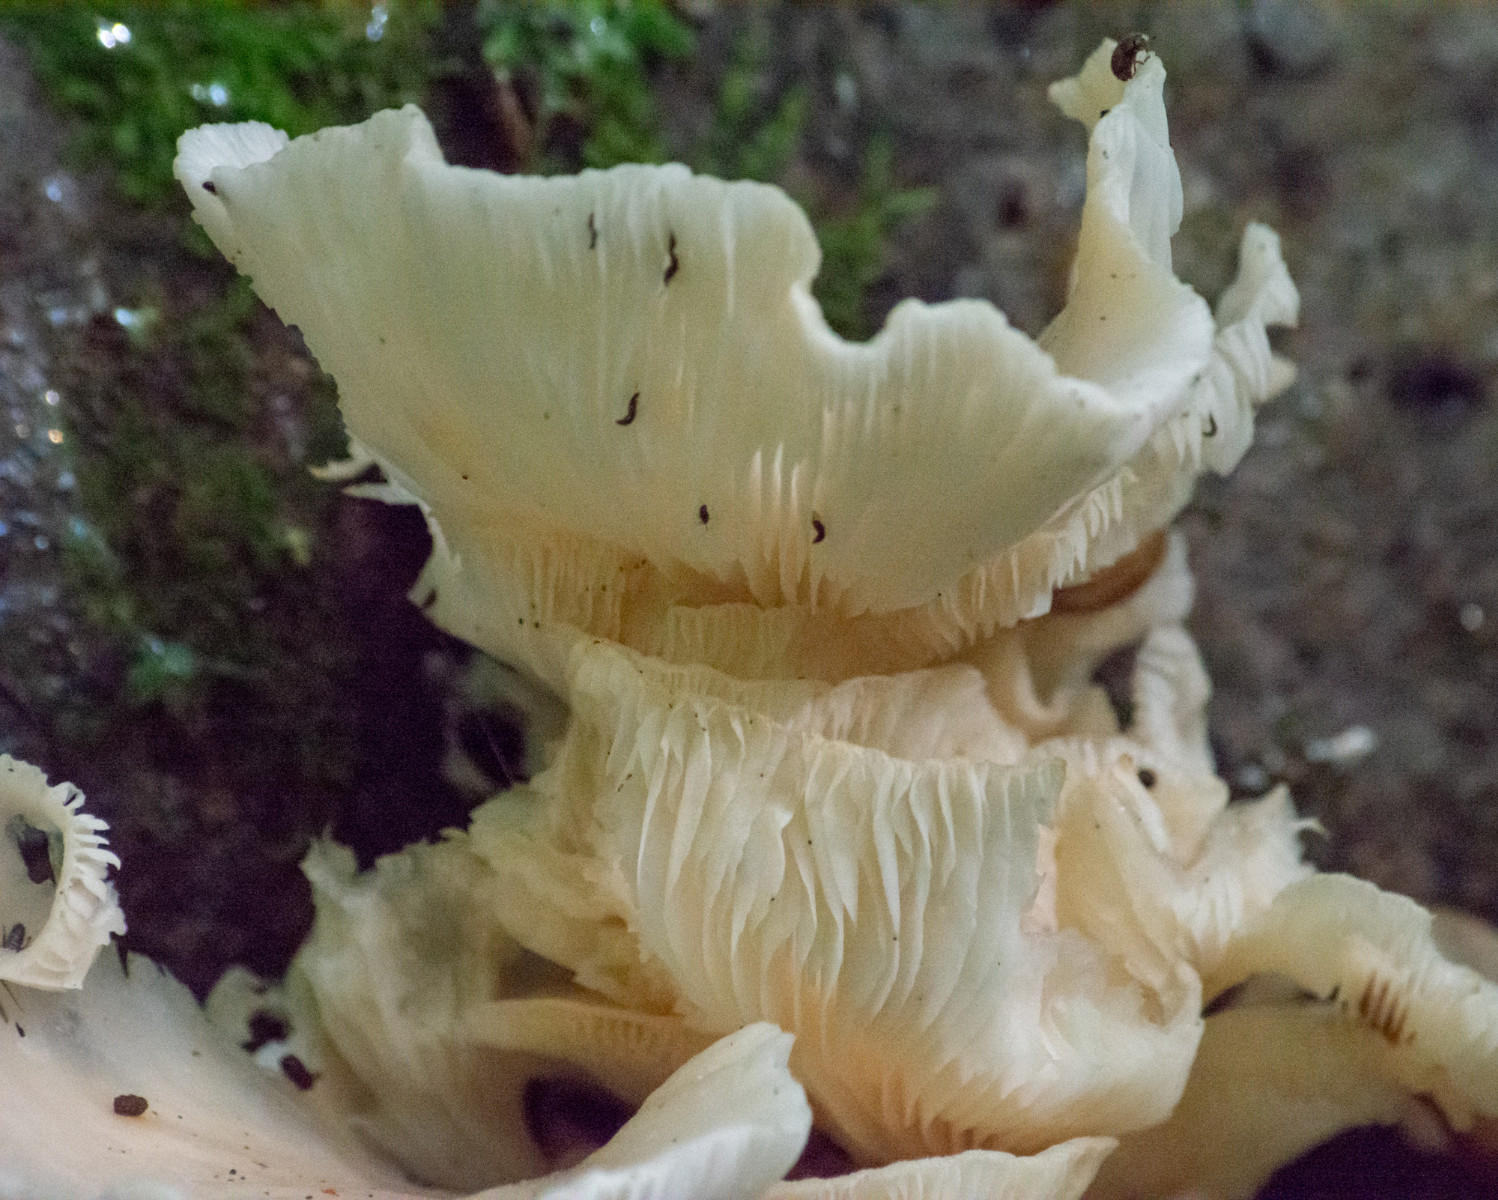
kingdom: Fungi
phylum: Basidiomycota
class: Agaricomycetes
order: Agaricales
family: Pleurotaceae
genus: Pleurotus
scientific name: Pleurotus
